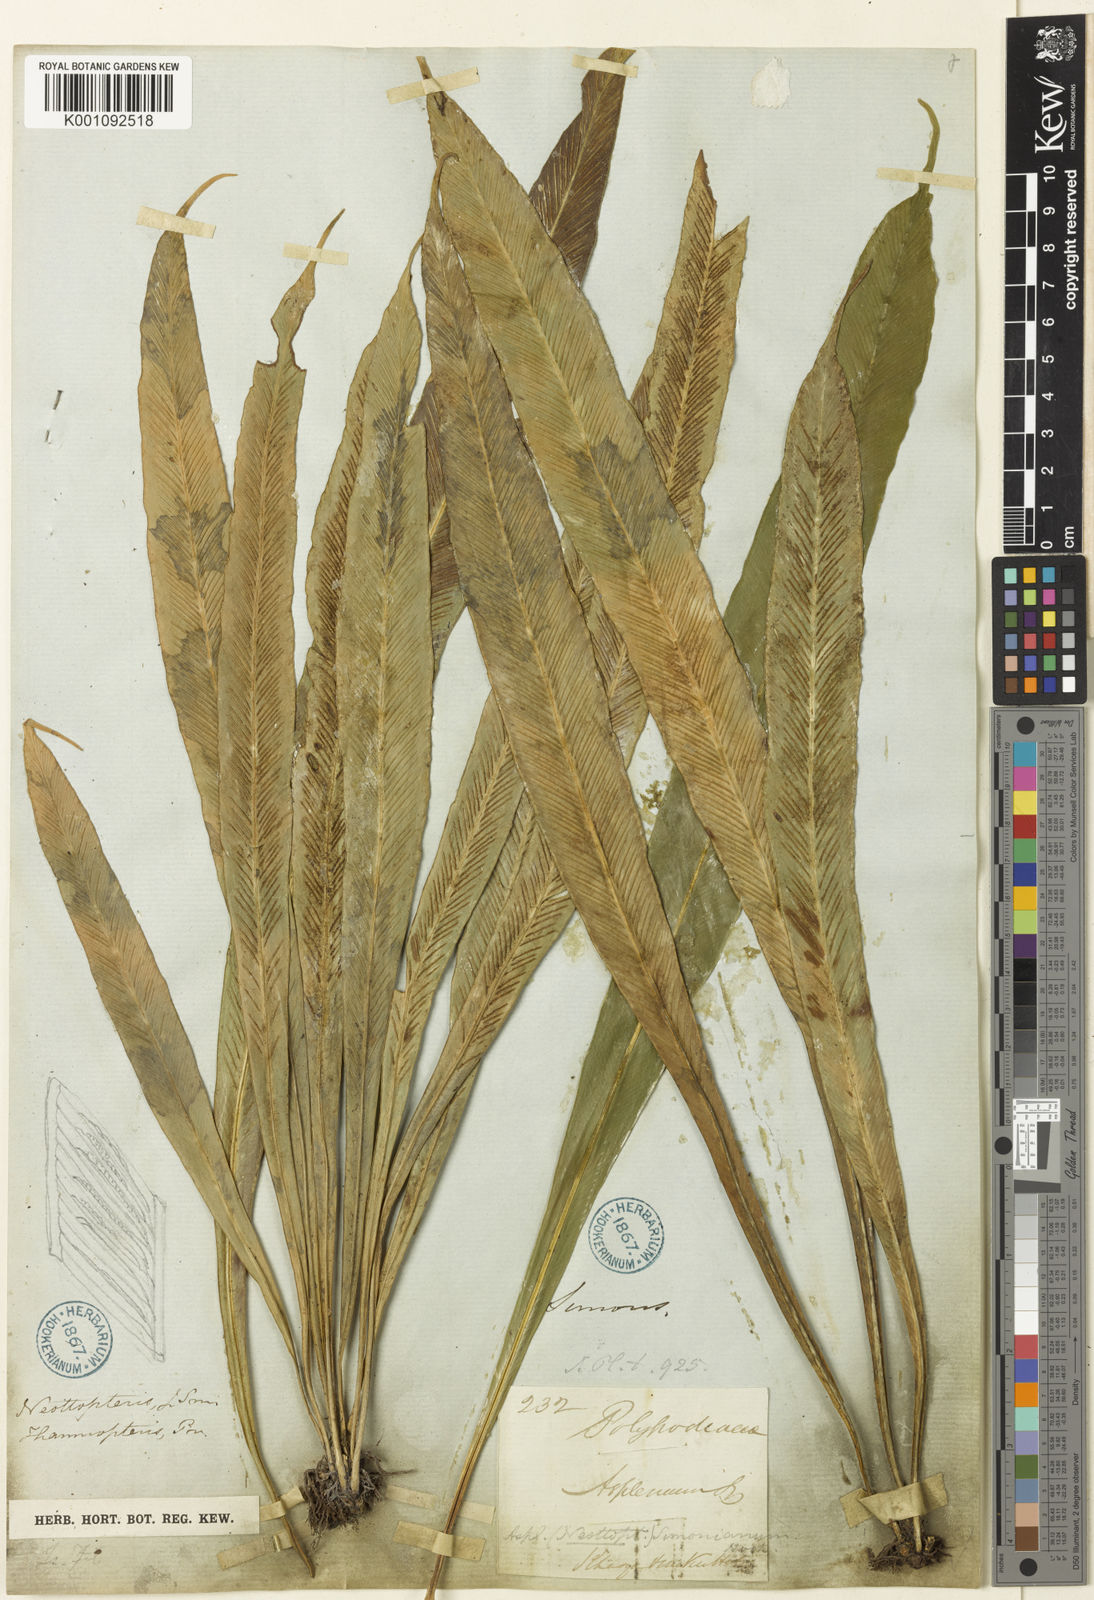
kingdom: Plantae
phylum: Tracheophyta
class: Polypodiopsida
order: Polypodiales
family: Aspleniaceae
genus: Asplenium
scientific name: Asplenium simonsianum
